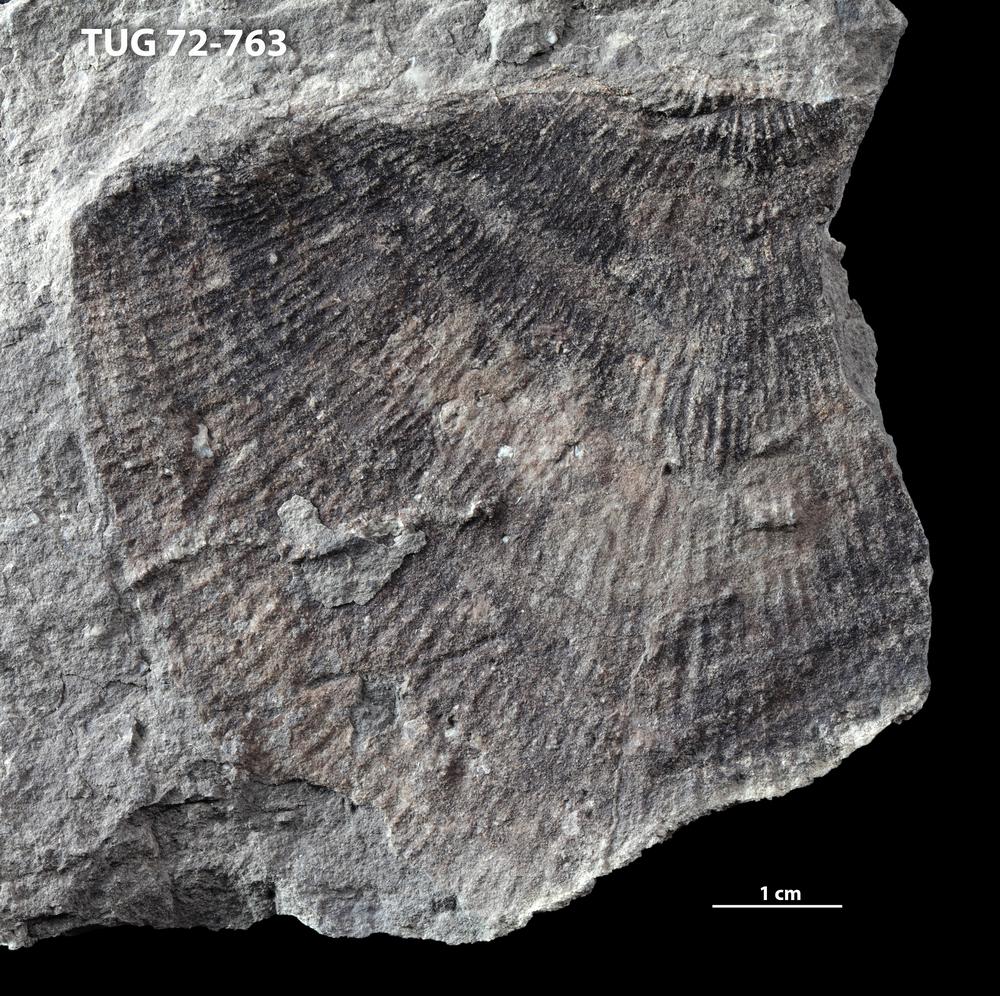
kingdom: Animalia
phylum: Brachiopoda
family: Strophomenidae
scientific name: Strophomenidae
